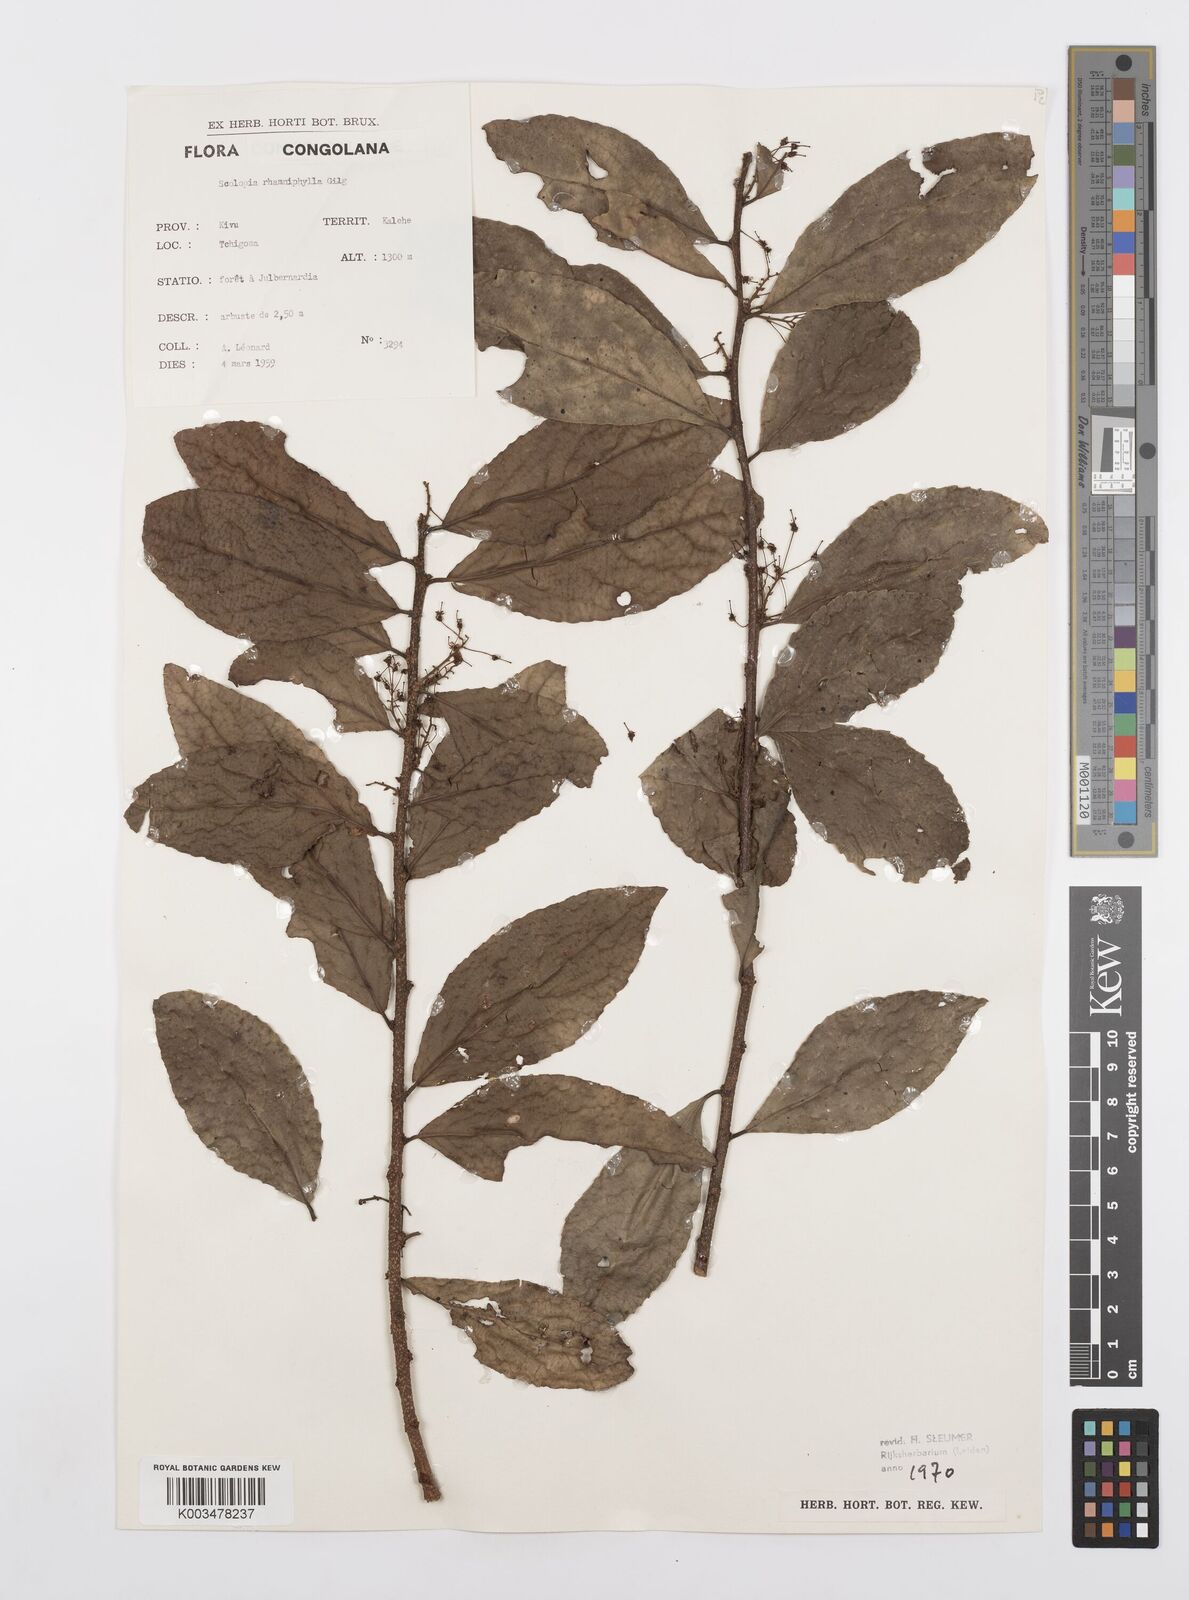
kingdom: Plantae
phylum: Tracheophyta
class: Magnoliopsida
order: Malpighiales
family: Salicaceae
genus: Scolopia
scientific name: Scolopia rhamniphylla
